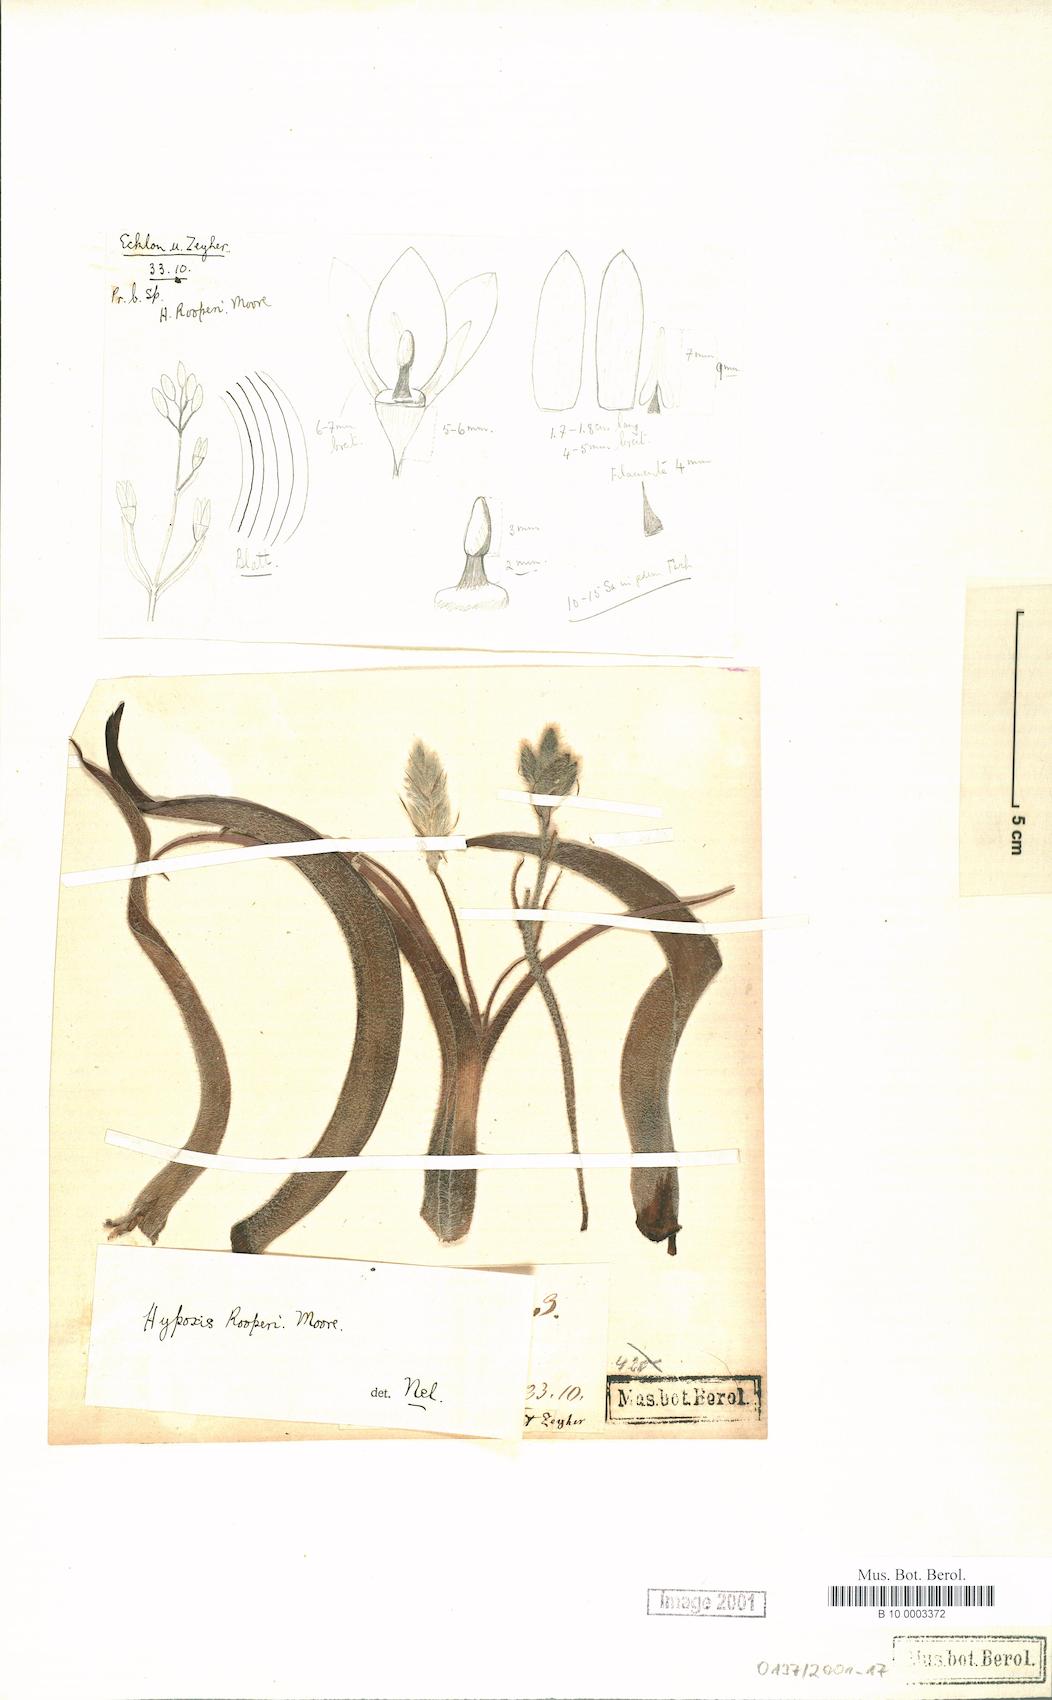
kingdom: Plantae
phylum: Tracheophyta
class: Liliopsida
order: Asparagales
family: Hypoxidaceae
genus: Pauridia
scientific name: Pauridia glabella
